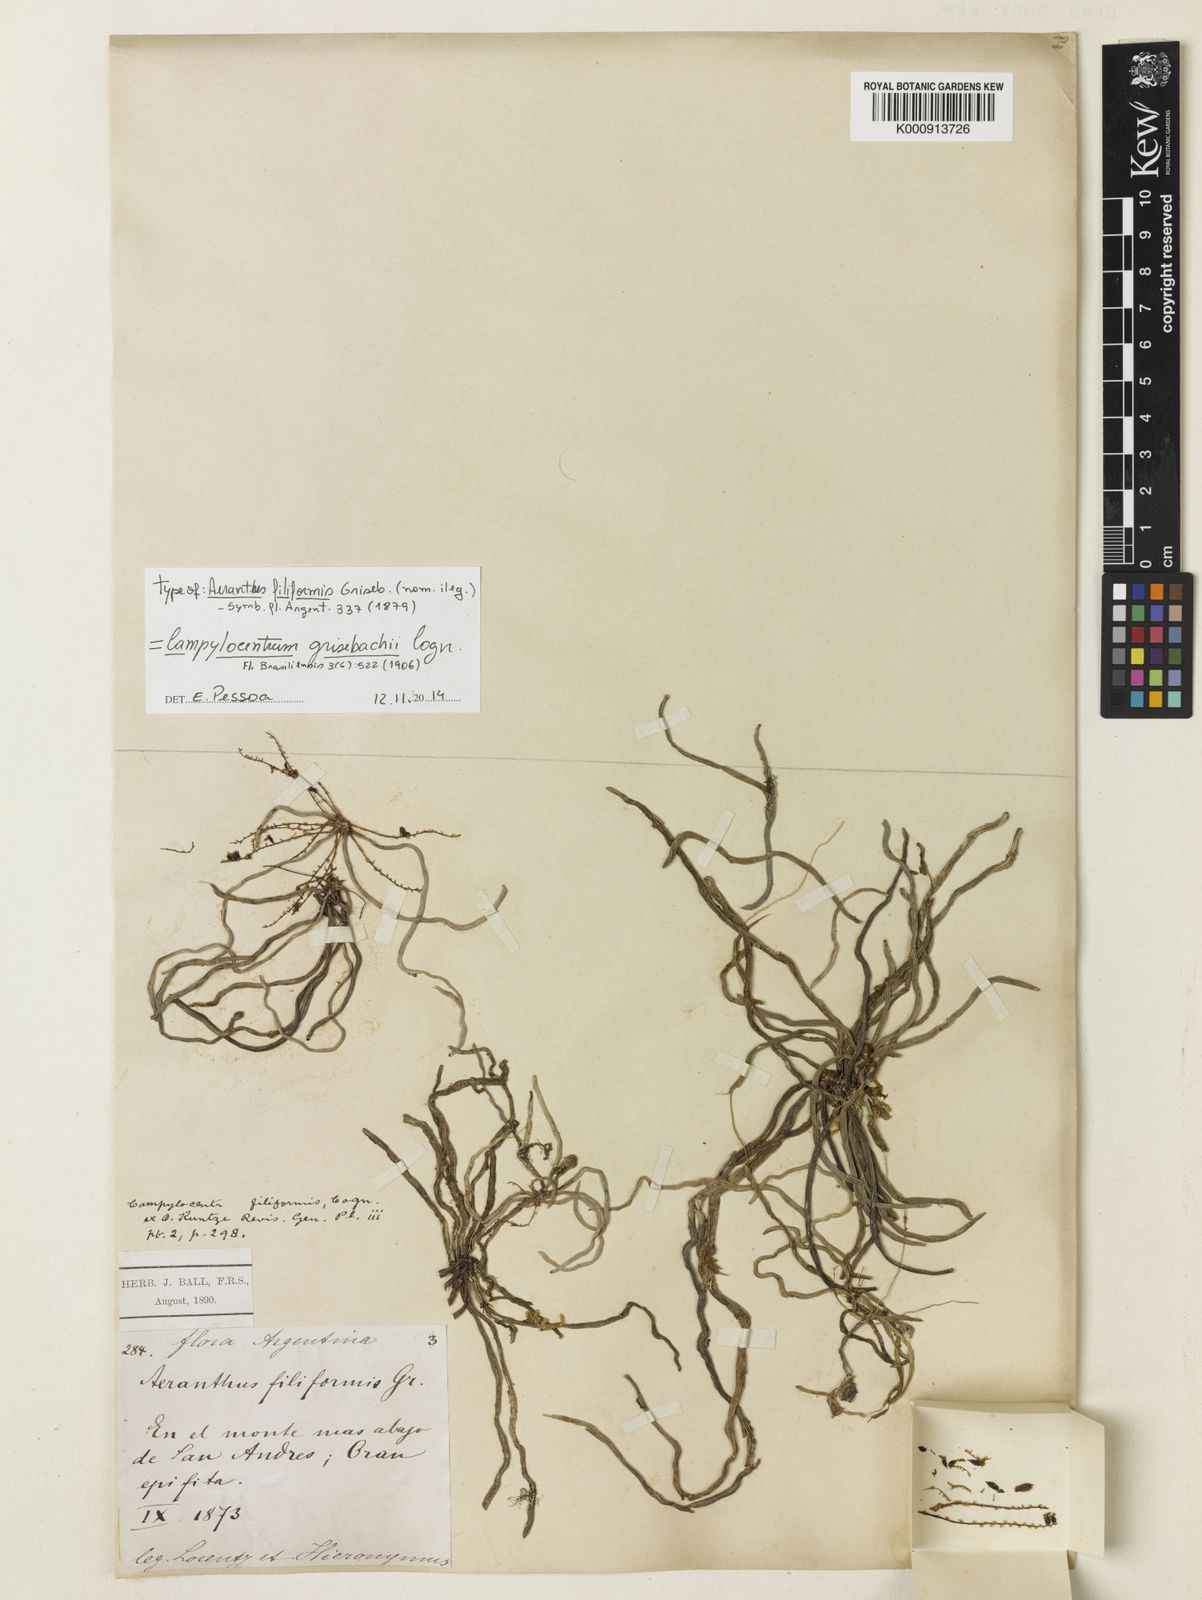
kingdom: Plantae
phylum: Tracheophyta
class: Liliopsida
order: Asparagales
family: Orchidaceae
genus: Campylocentrum
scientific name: Campylocentrum grisebachii
